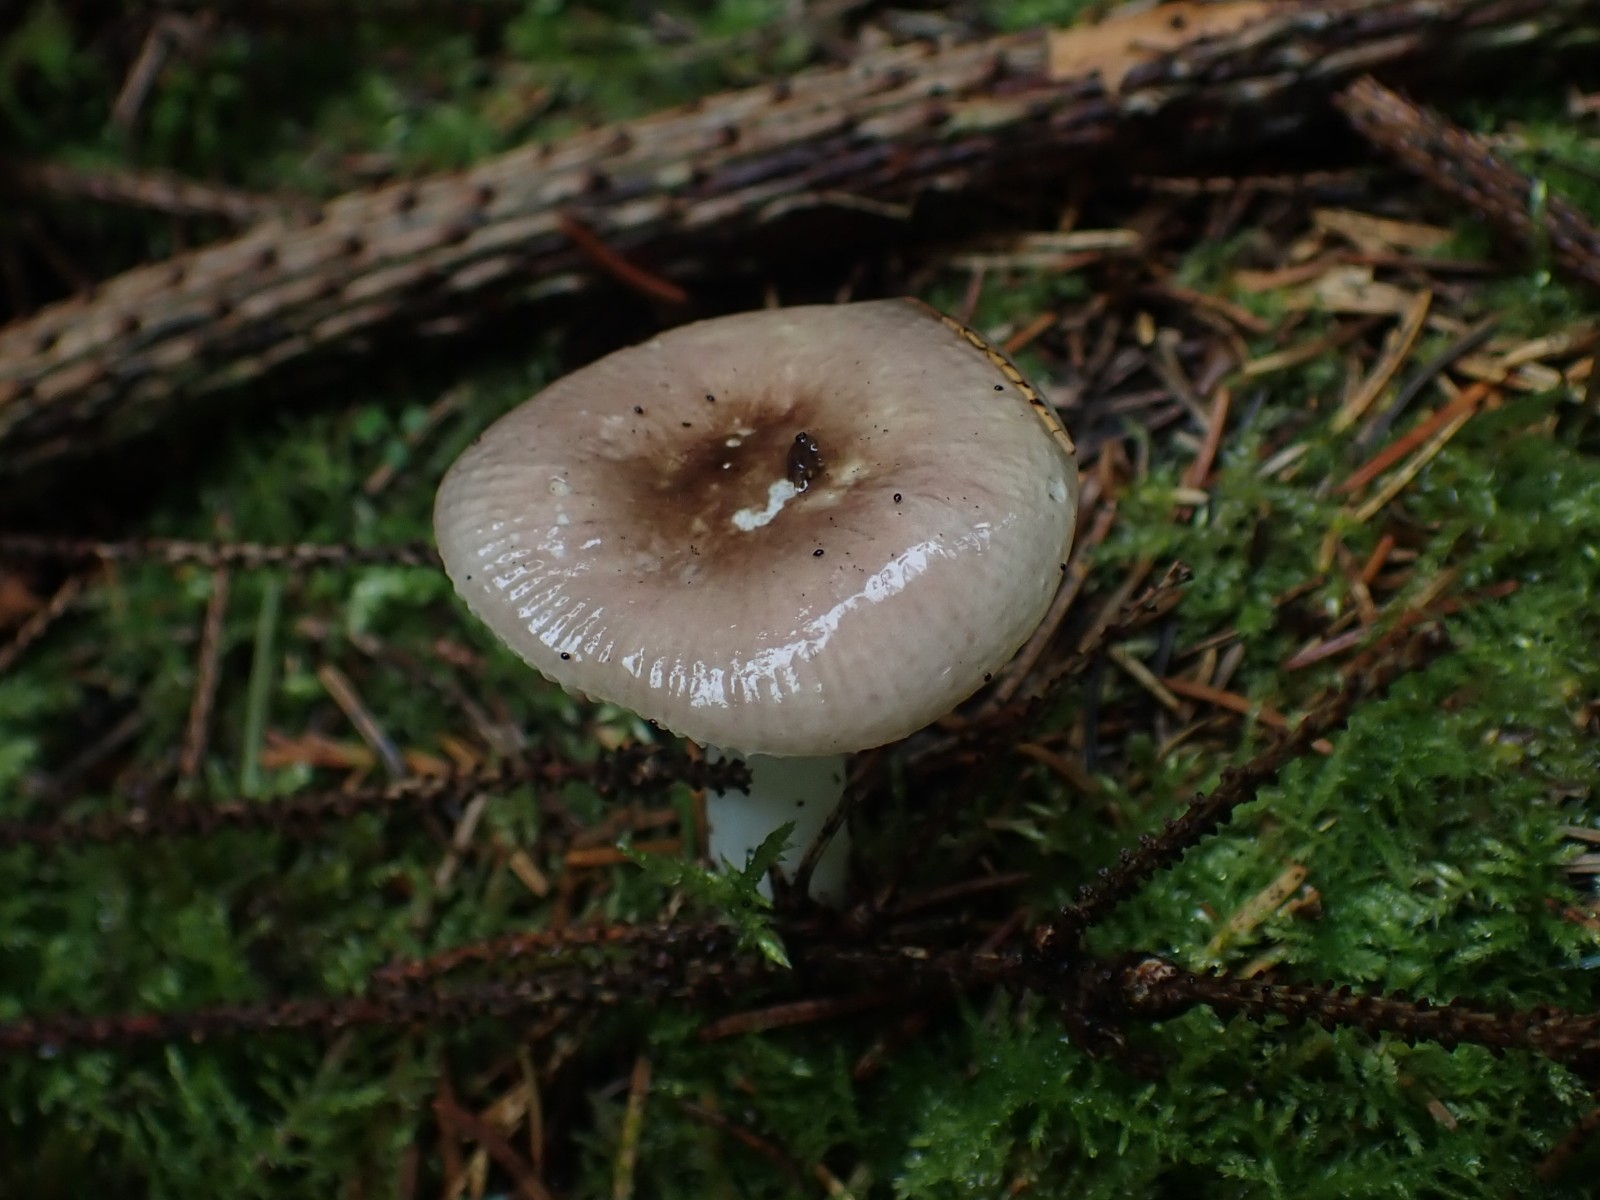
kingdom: Fungi
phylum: Basidiomycota
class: Agaricomycetes
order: Russulales
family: Russulaceae
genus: Russula
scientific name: Russula nauseosa
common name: spinkel skørhat
